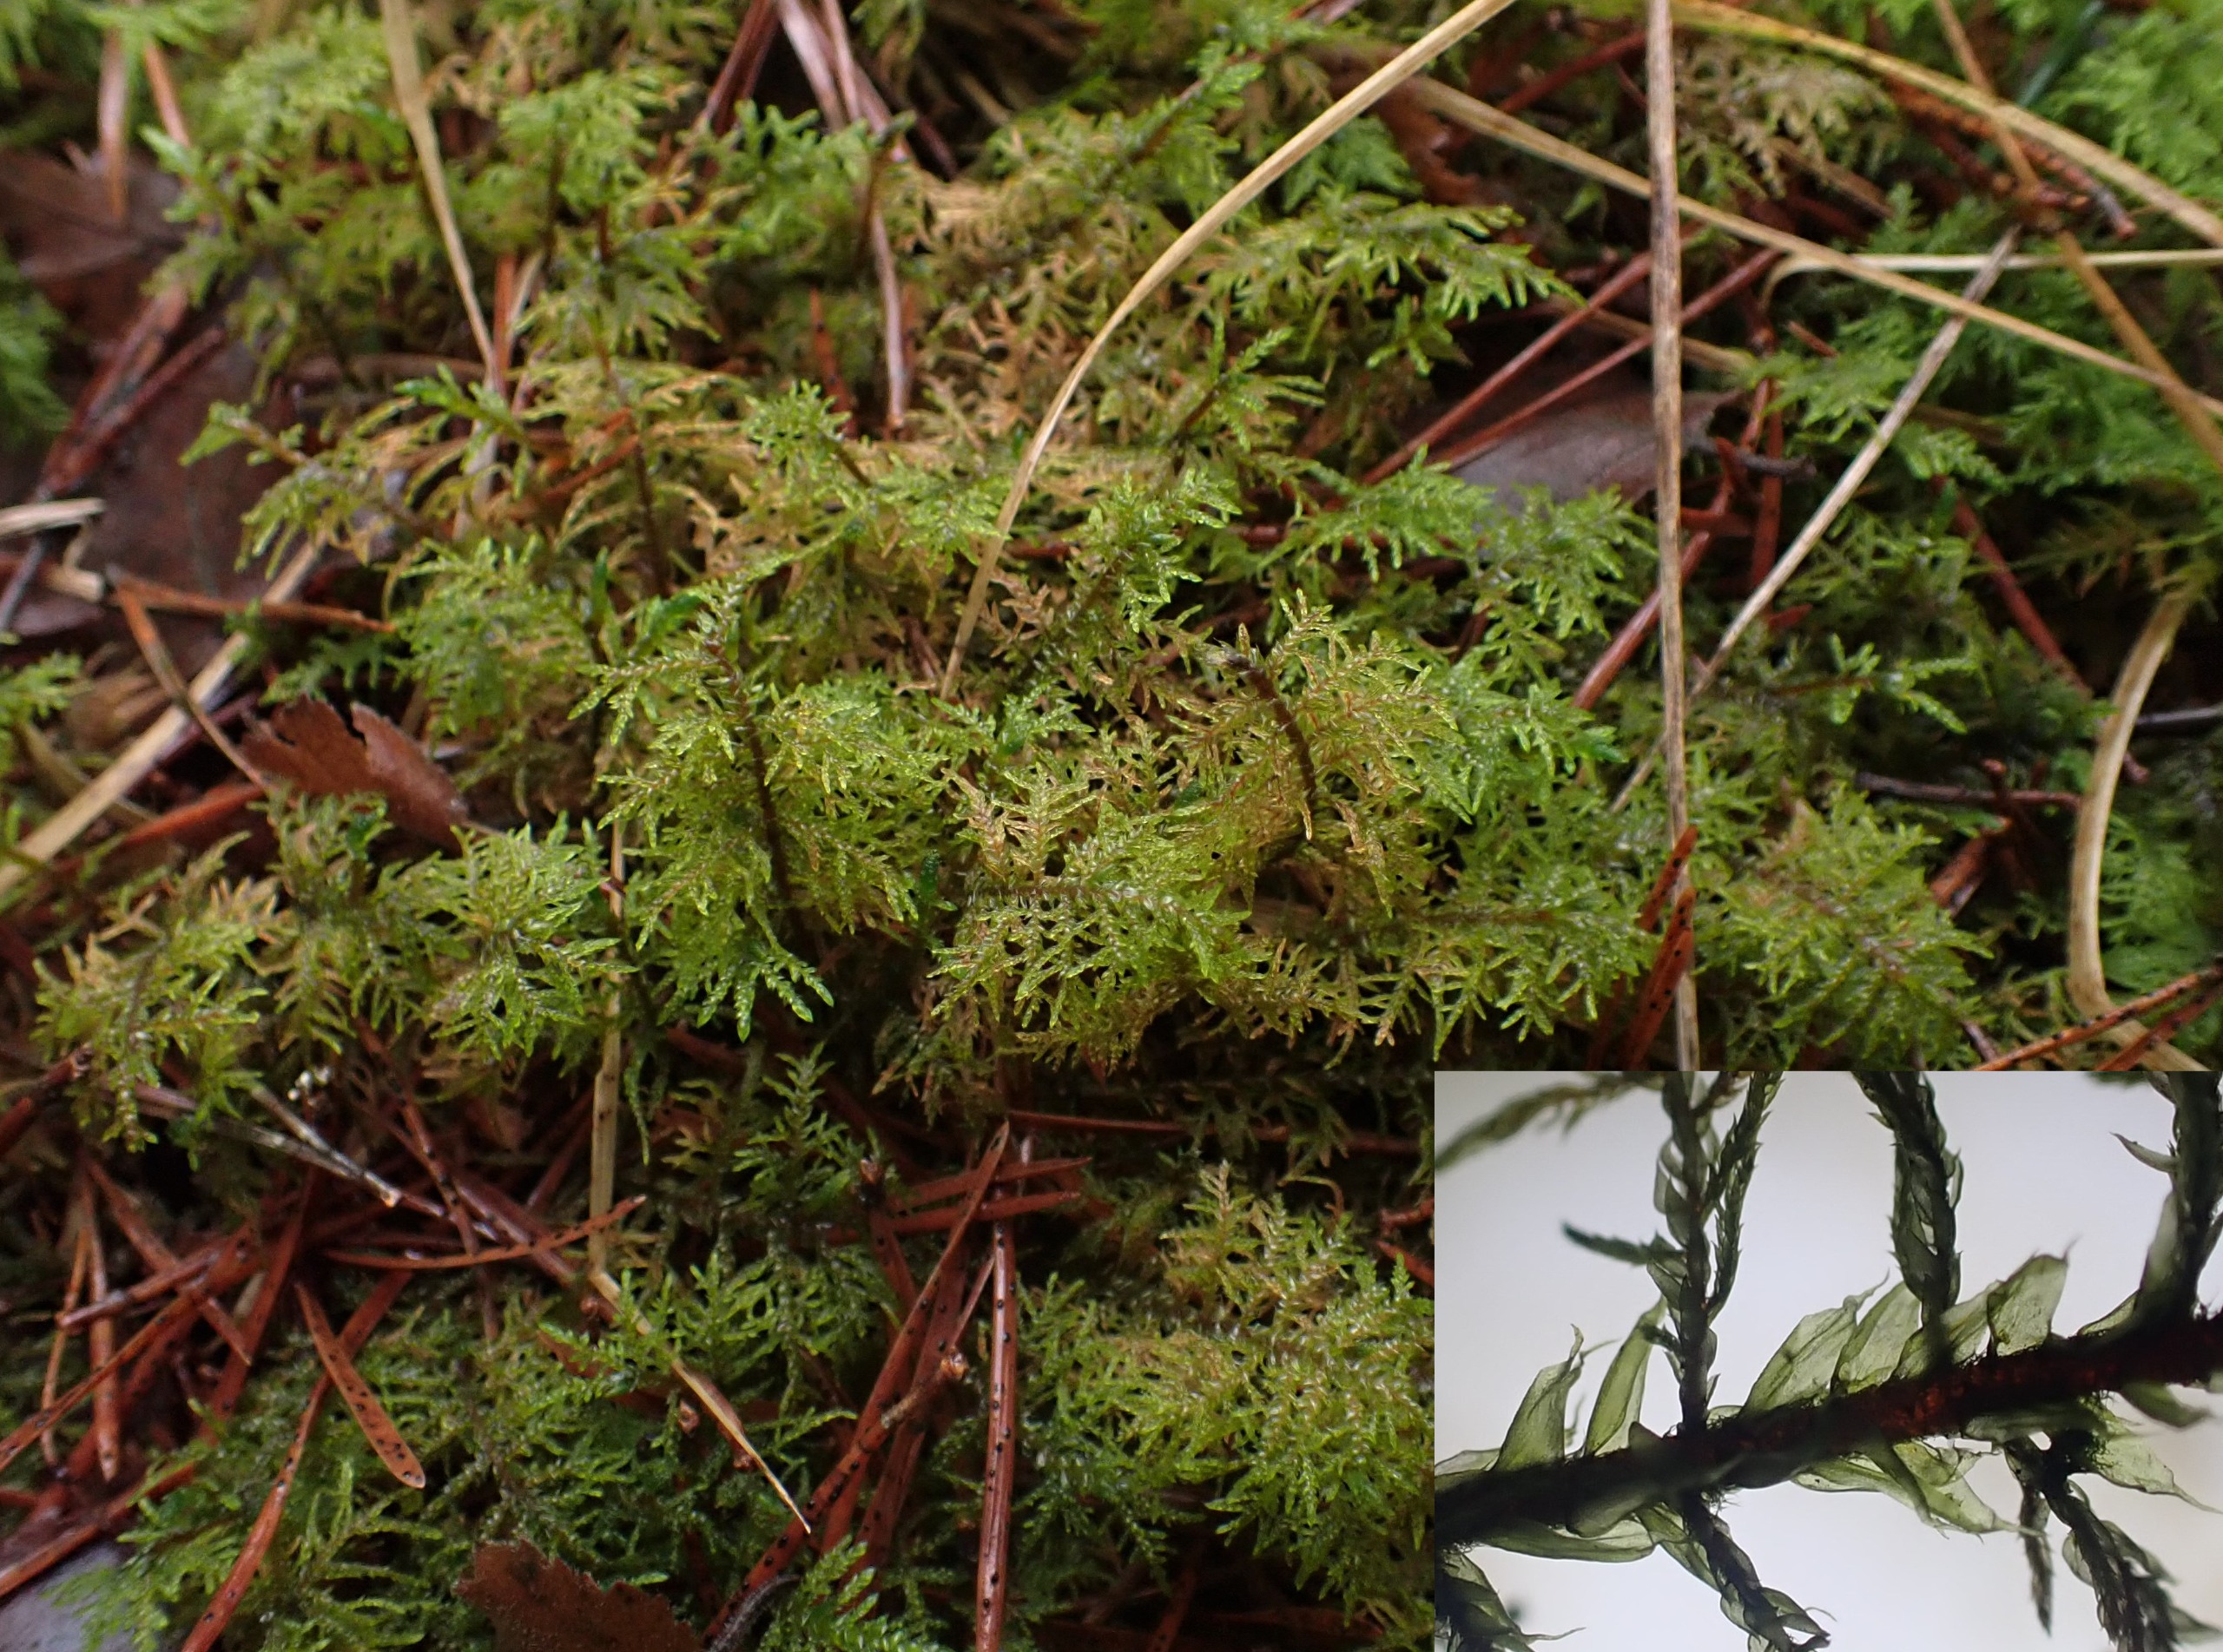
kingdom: Plantae
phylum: Bryophyta
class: Bryopsida
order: Hypnales
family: Hylocomiaceae
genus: Hylocomium
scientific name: Hylocomium splendens
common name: Almindelig etagemos
